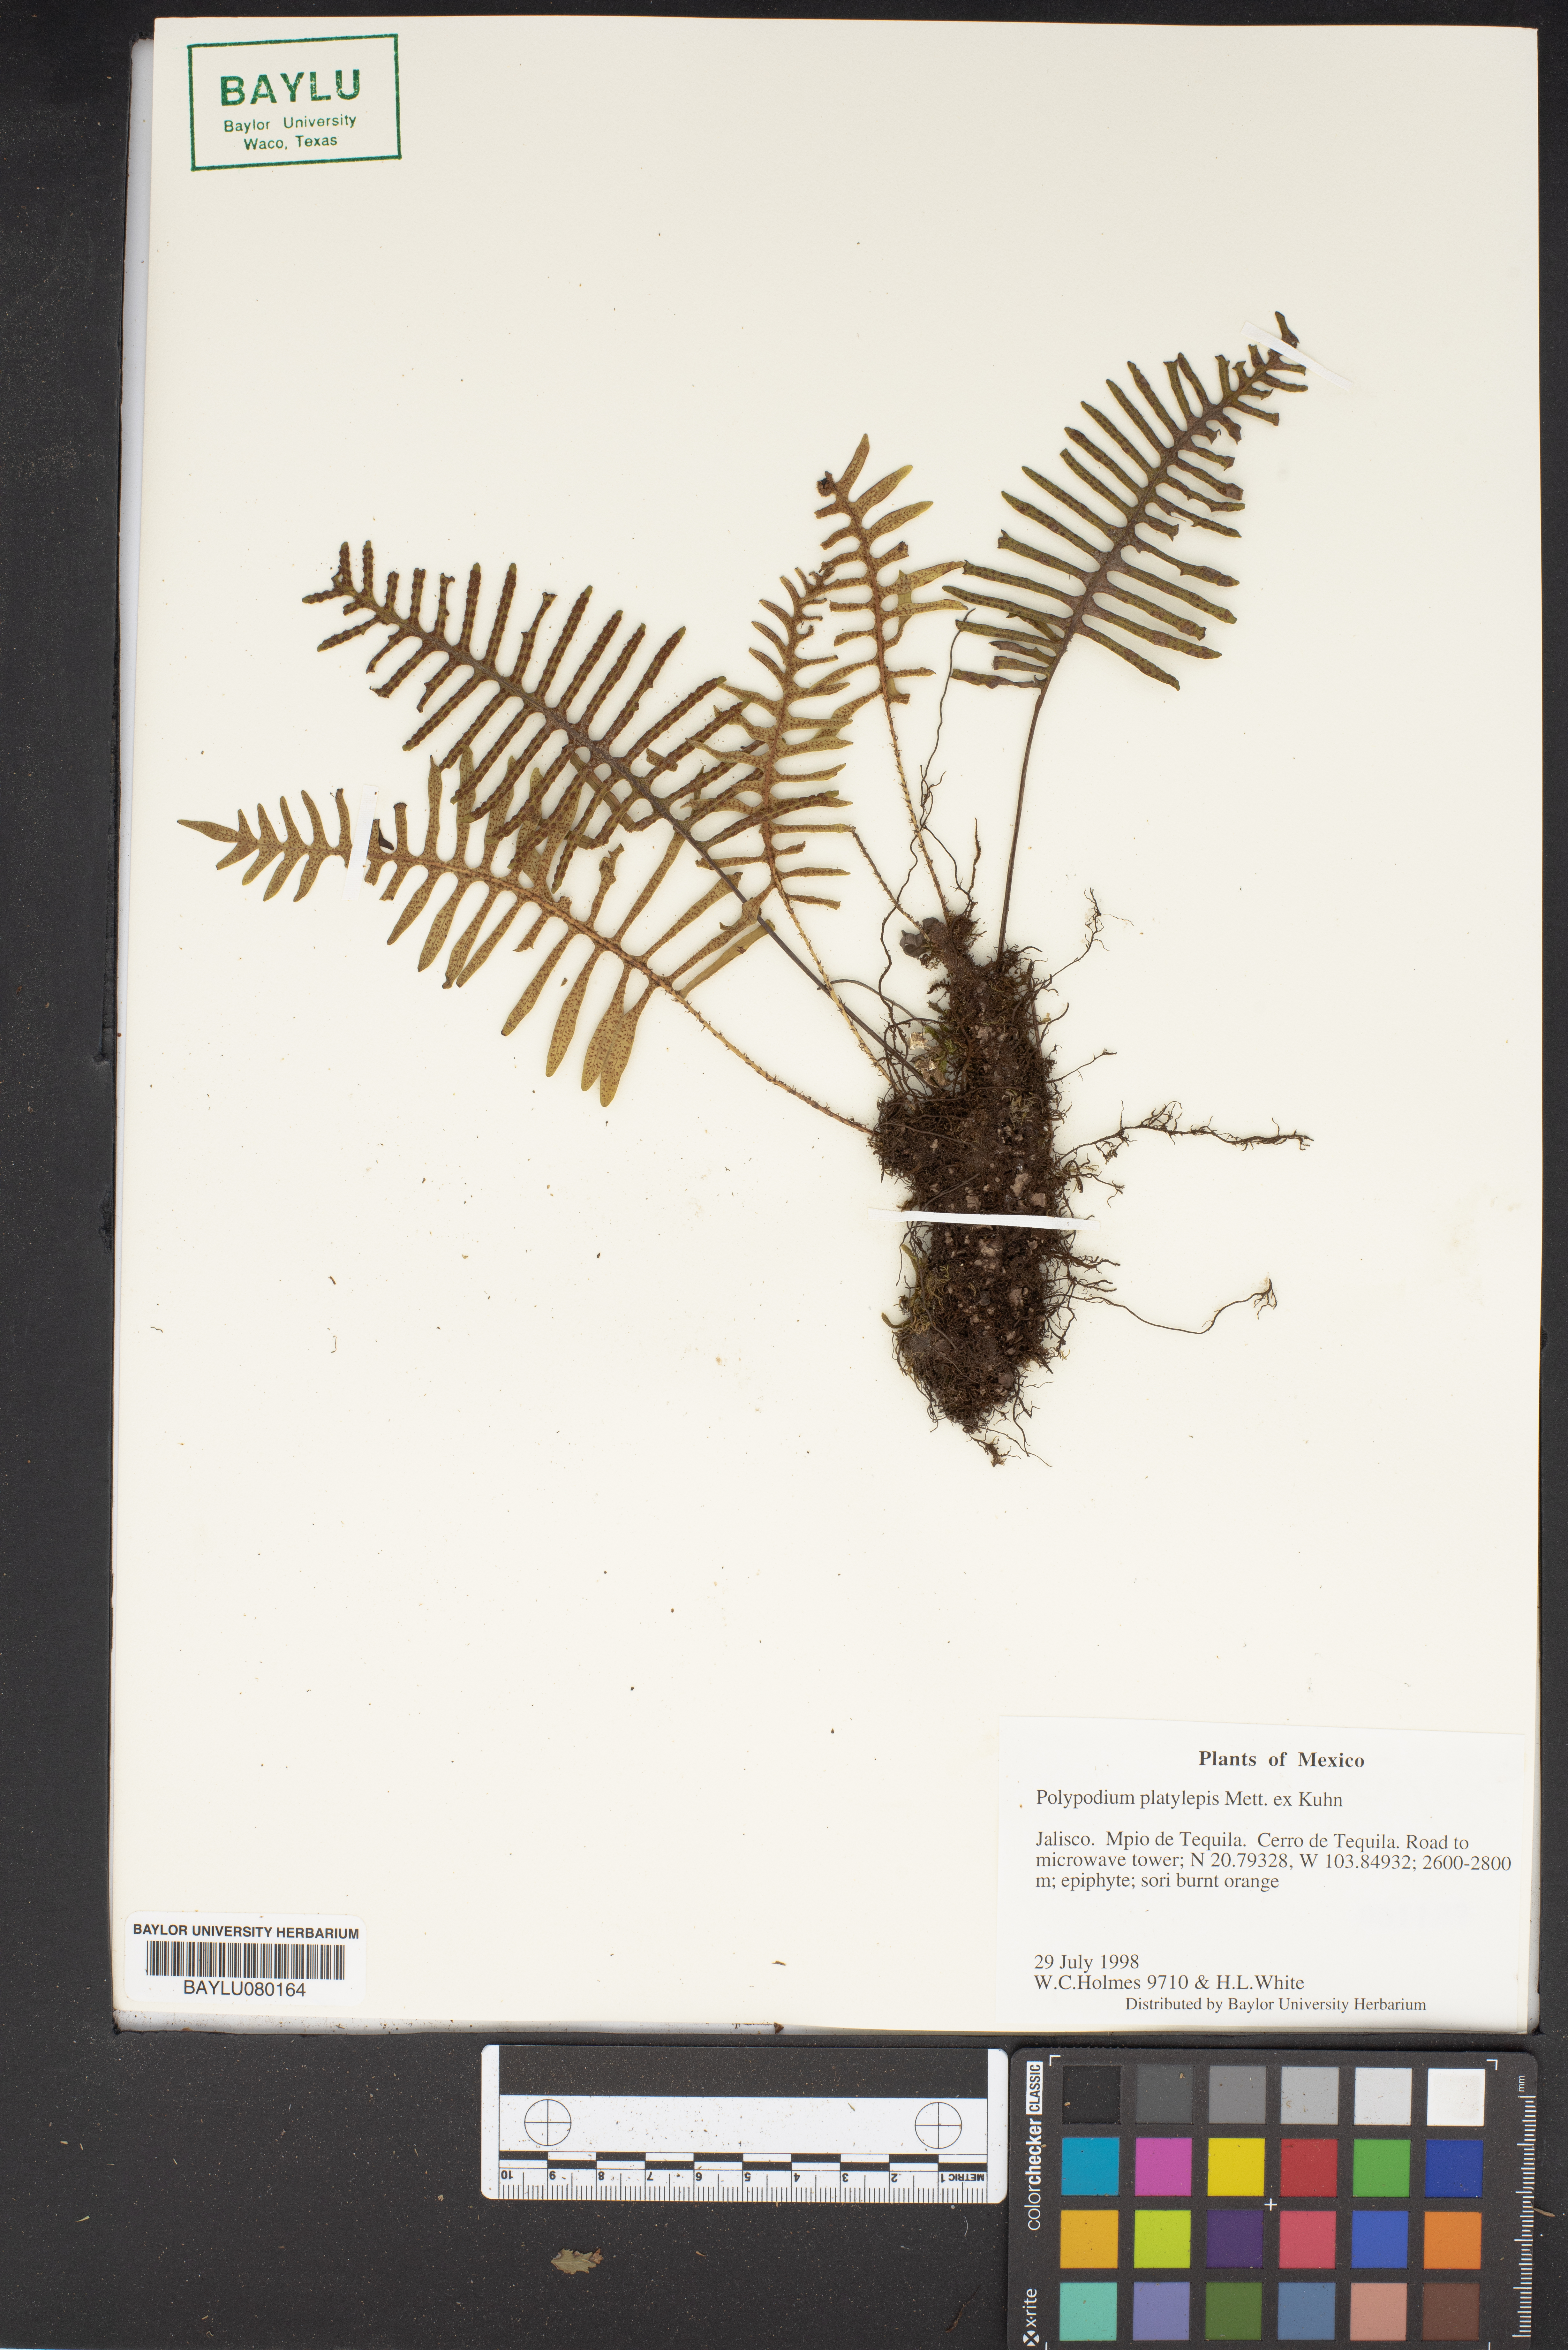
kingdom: Plantae
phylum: Tracheophyta
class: Polypodiopsida
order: Polypodiales
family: Polypodiaceae
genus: Pleopeltis
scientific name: Pleopeltis platylepis
